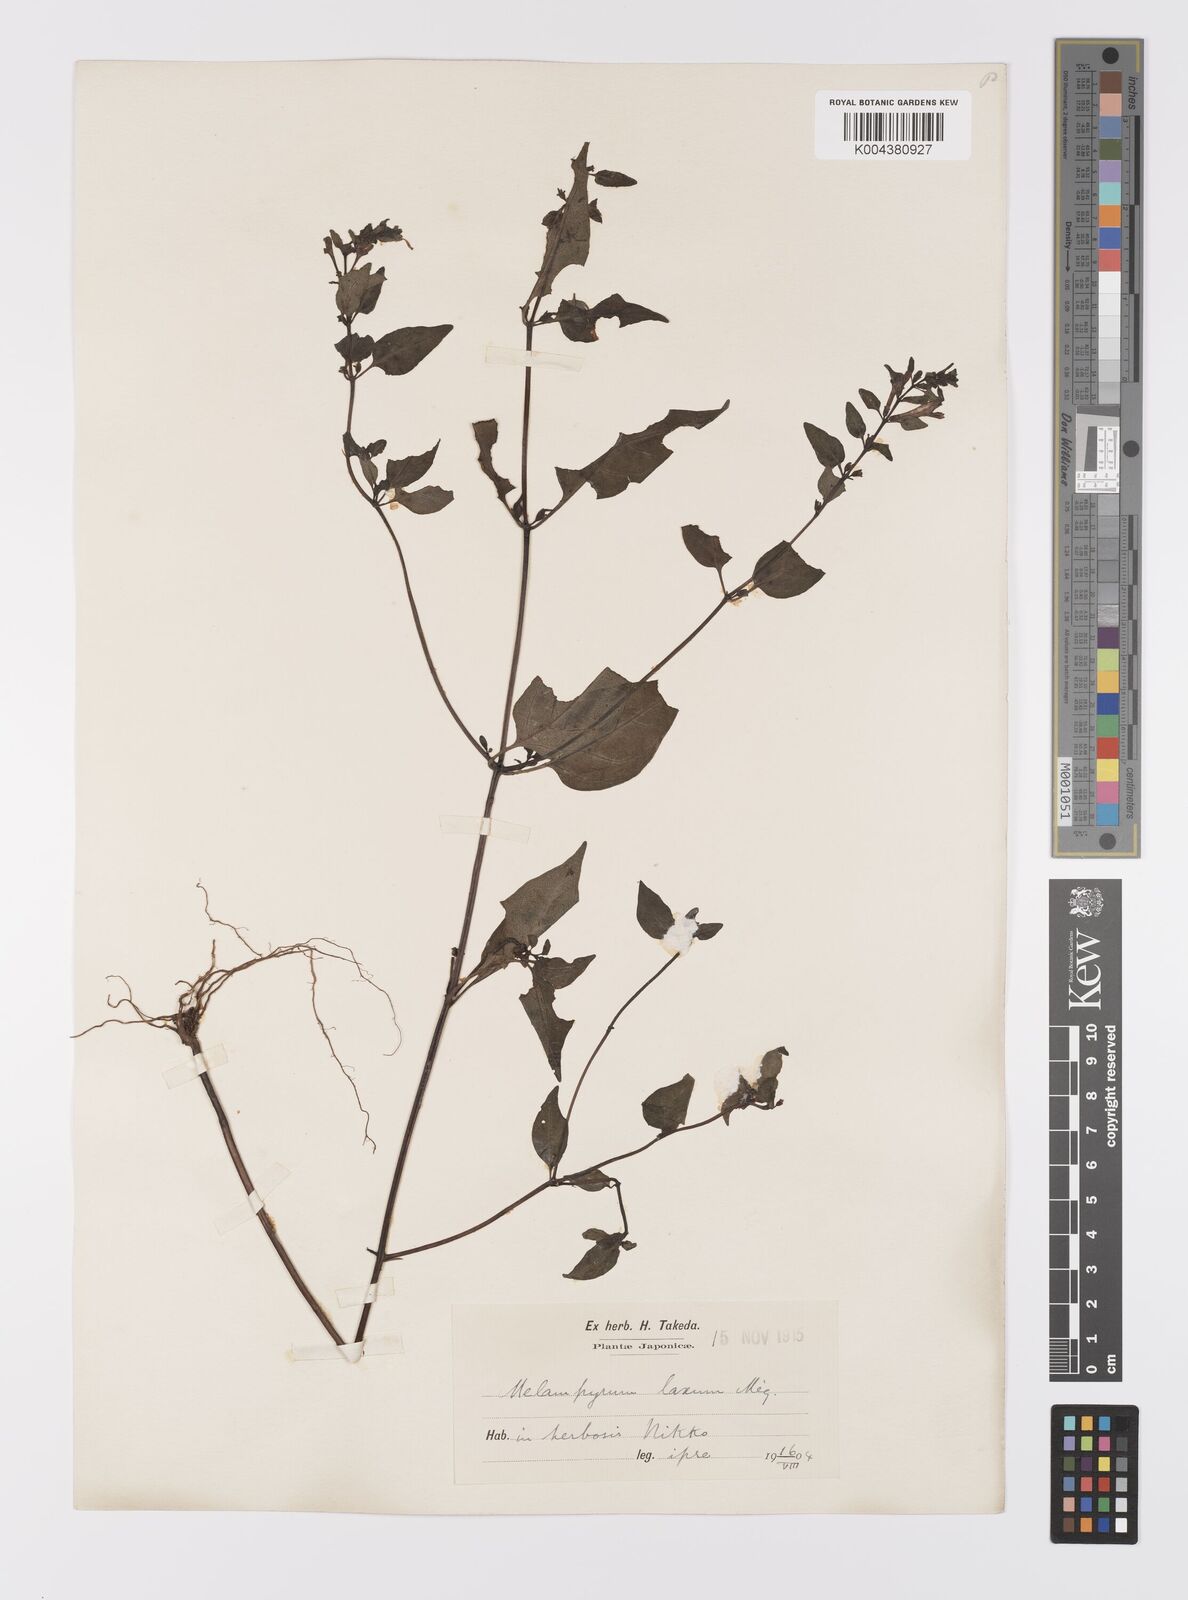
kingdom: Plantae
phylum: Tracheophyta
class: Magnoliopsida
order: Lamiales
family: Orobanchaceae
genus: Melampyrum
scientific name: Melampyrum laxum
